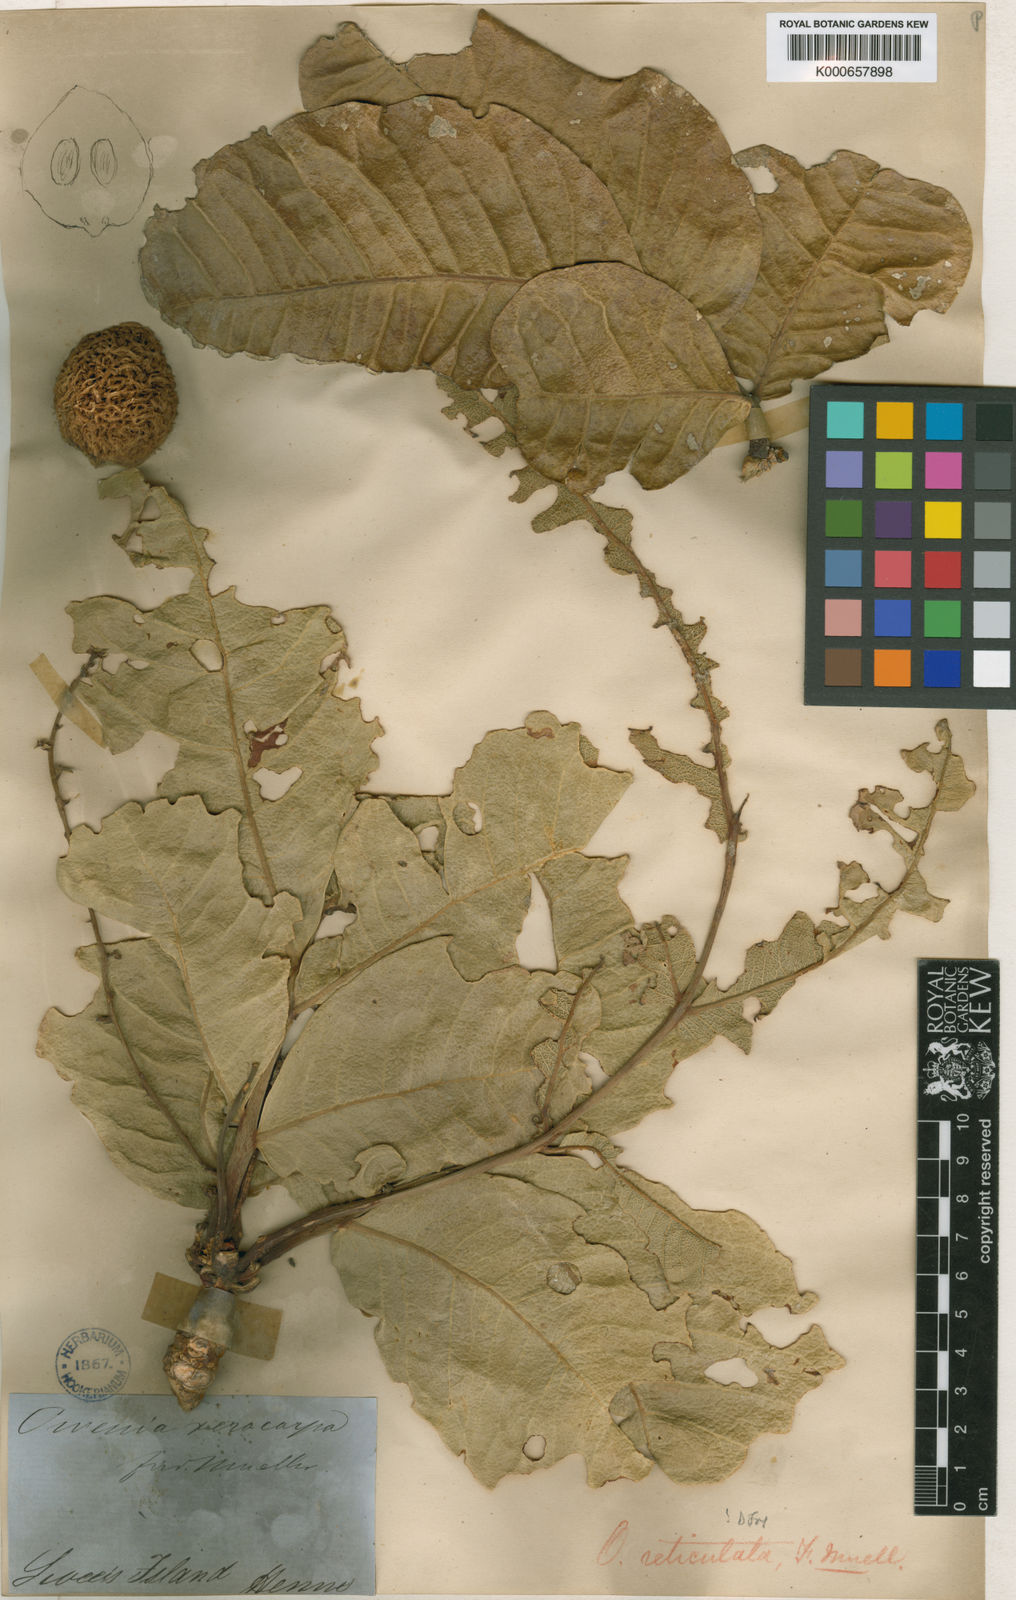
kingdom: Plantae
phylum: Tracheophyta
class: Magnoliopsida
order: Sapindales
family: Meliaceae
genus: Owenia
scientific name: Owenia reticulata
